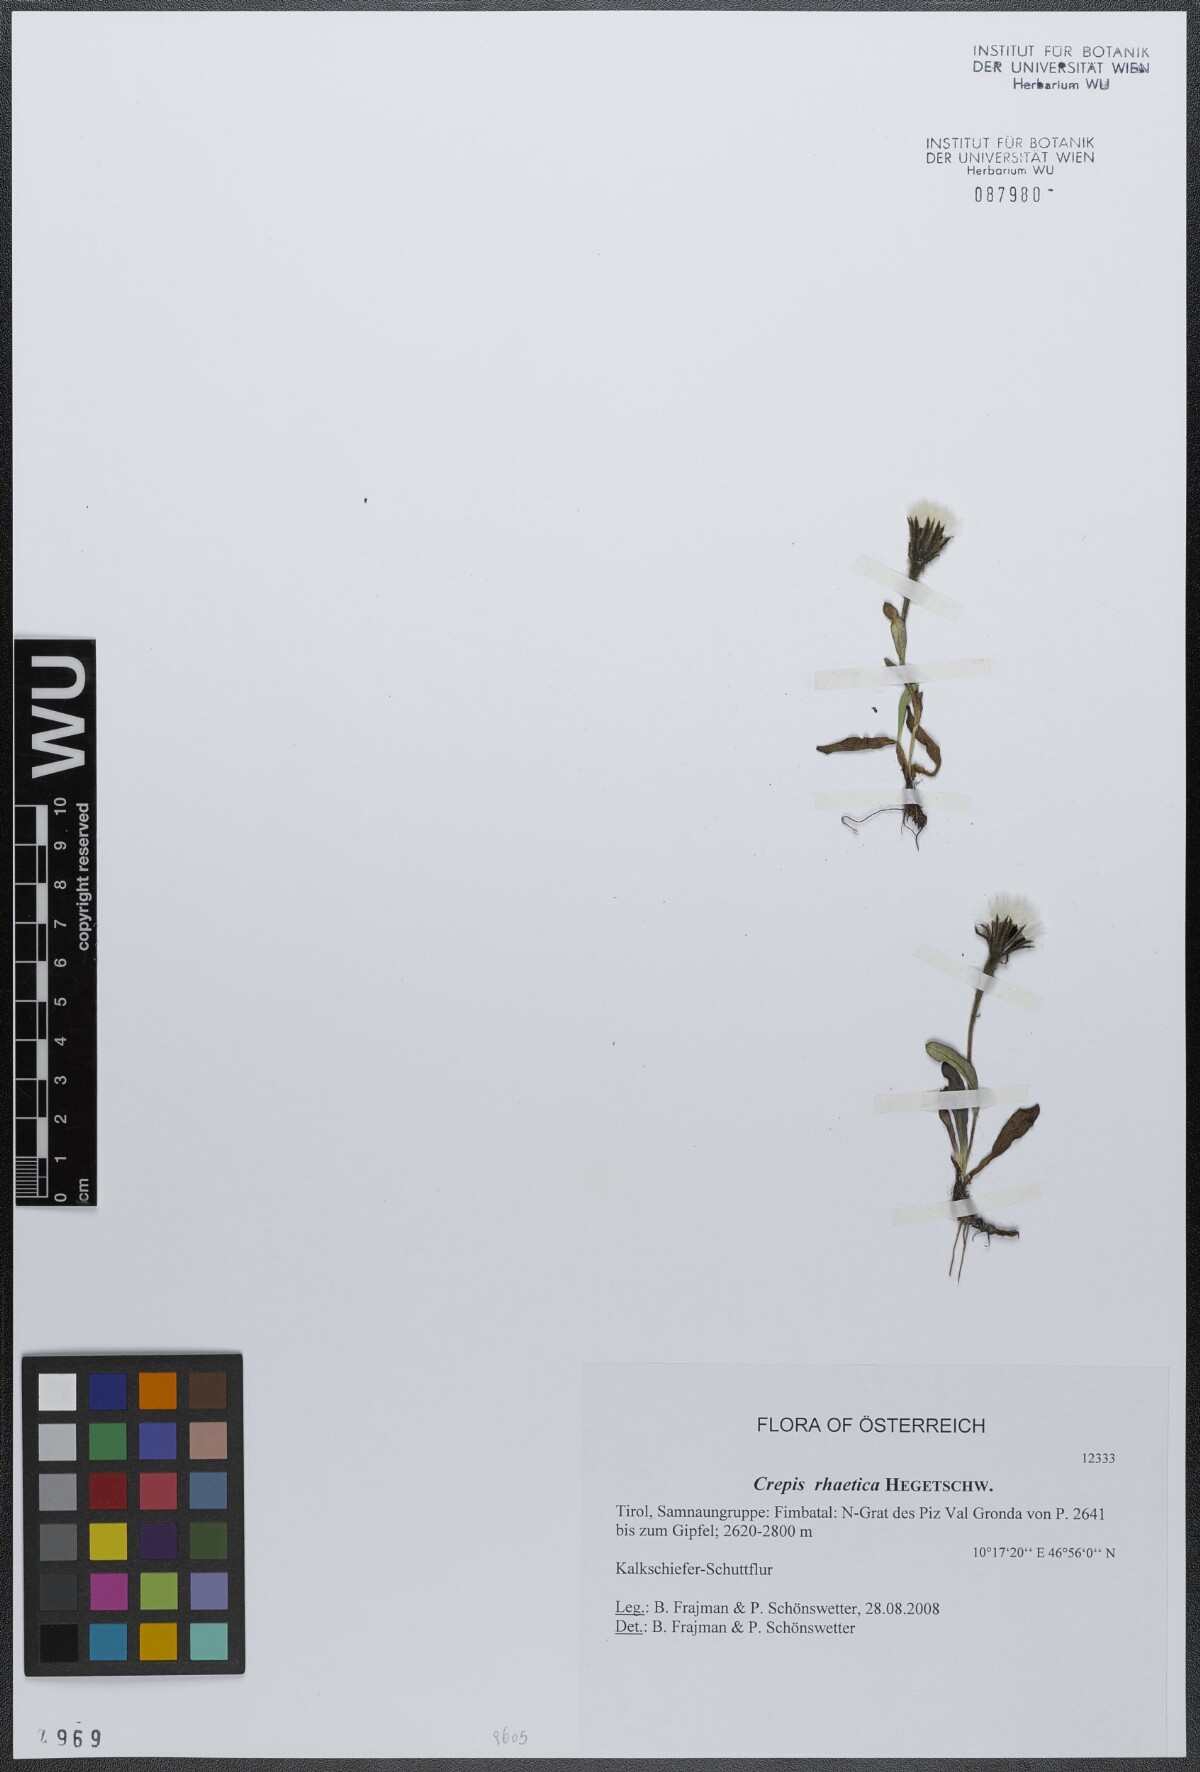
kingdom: Plantae
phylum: Tracheophyta
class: Magnoliopsida
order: Asterales
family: Asteraceae
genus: Crepis
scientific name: Crepis rhaetica
